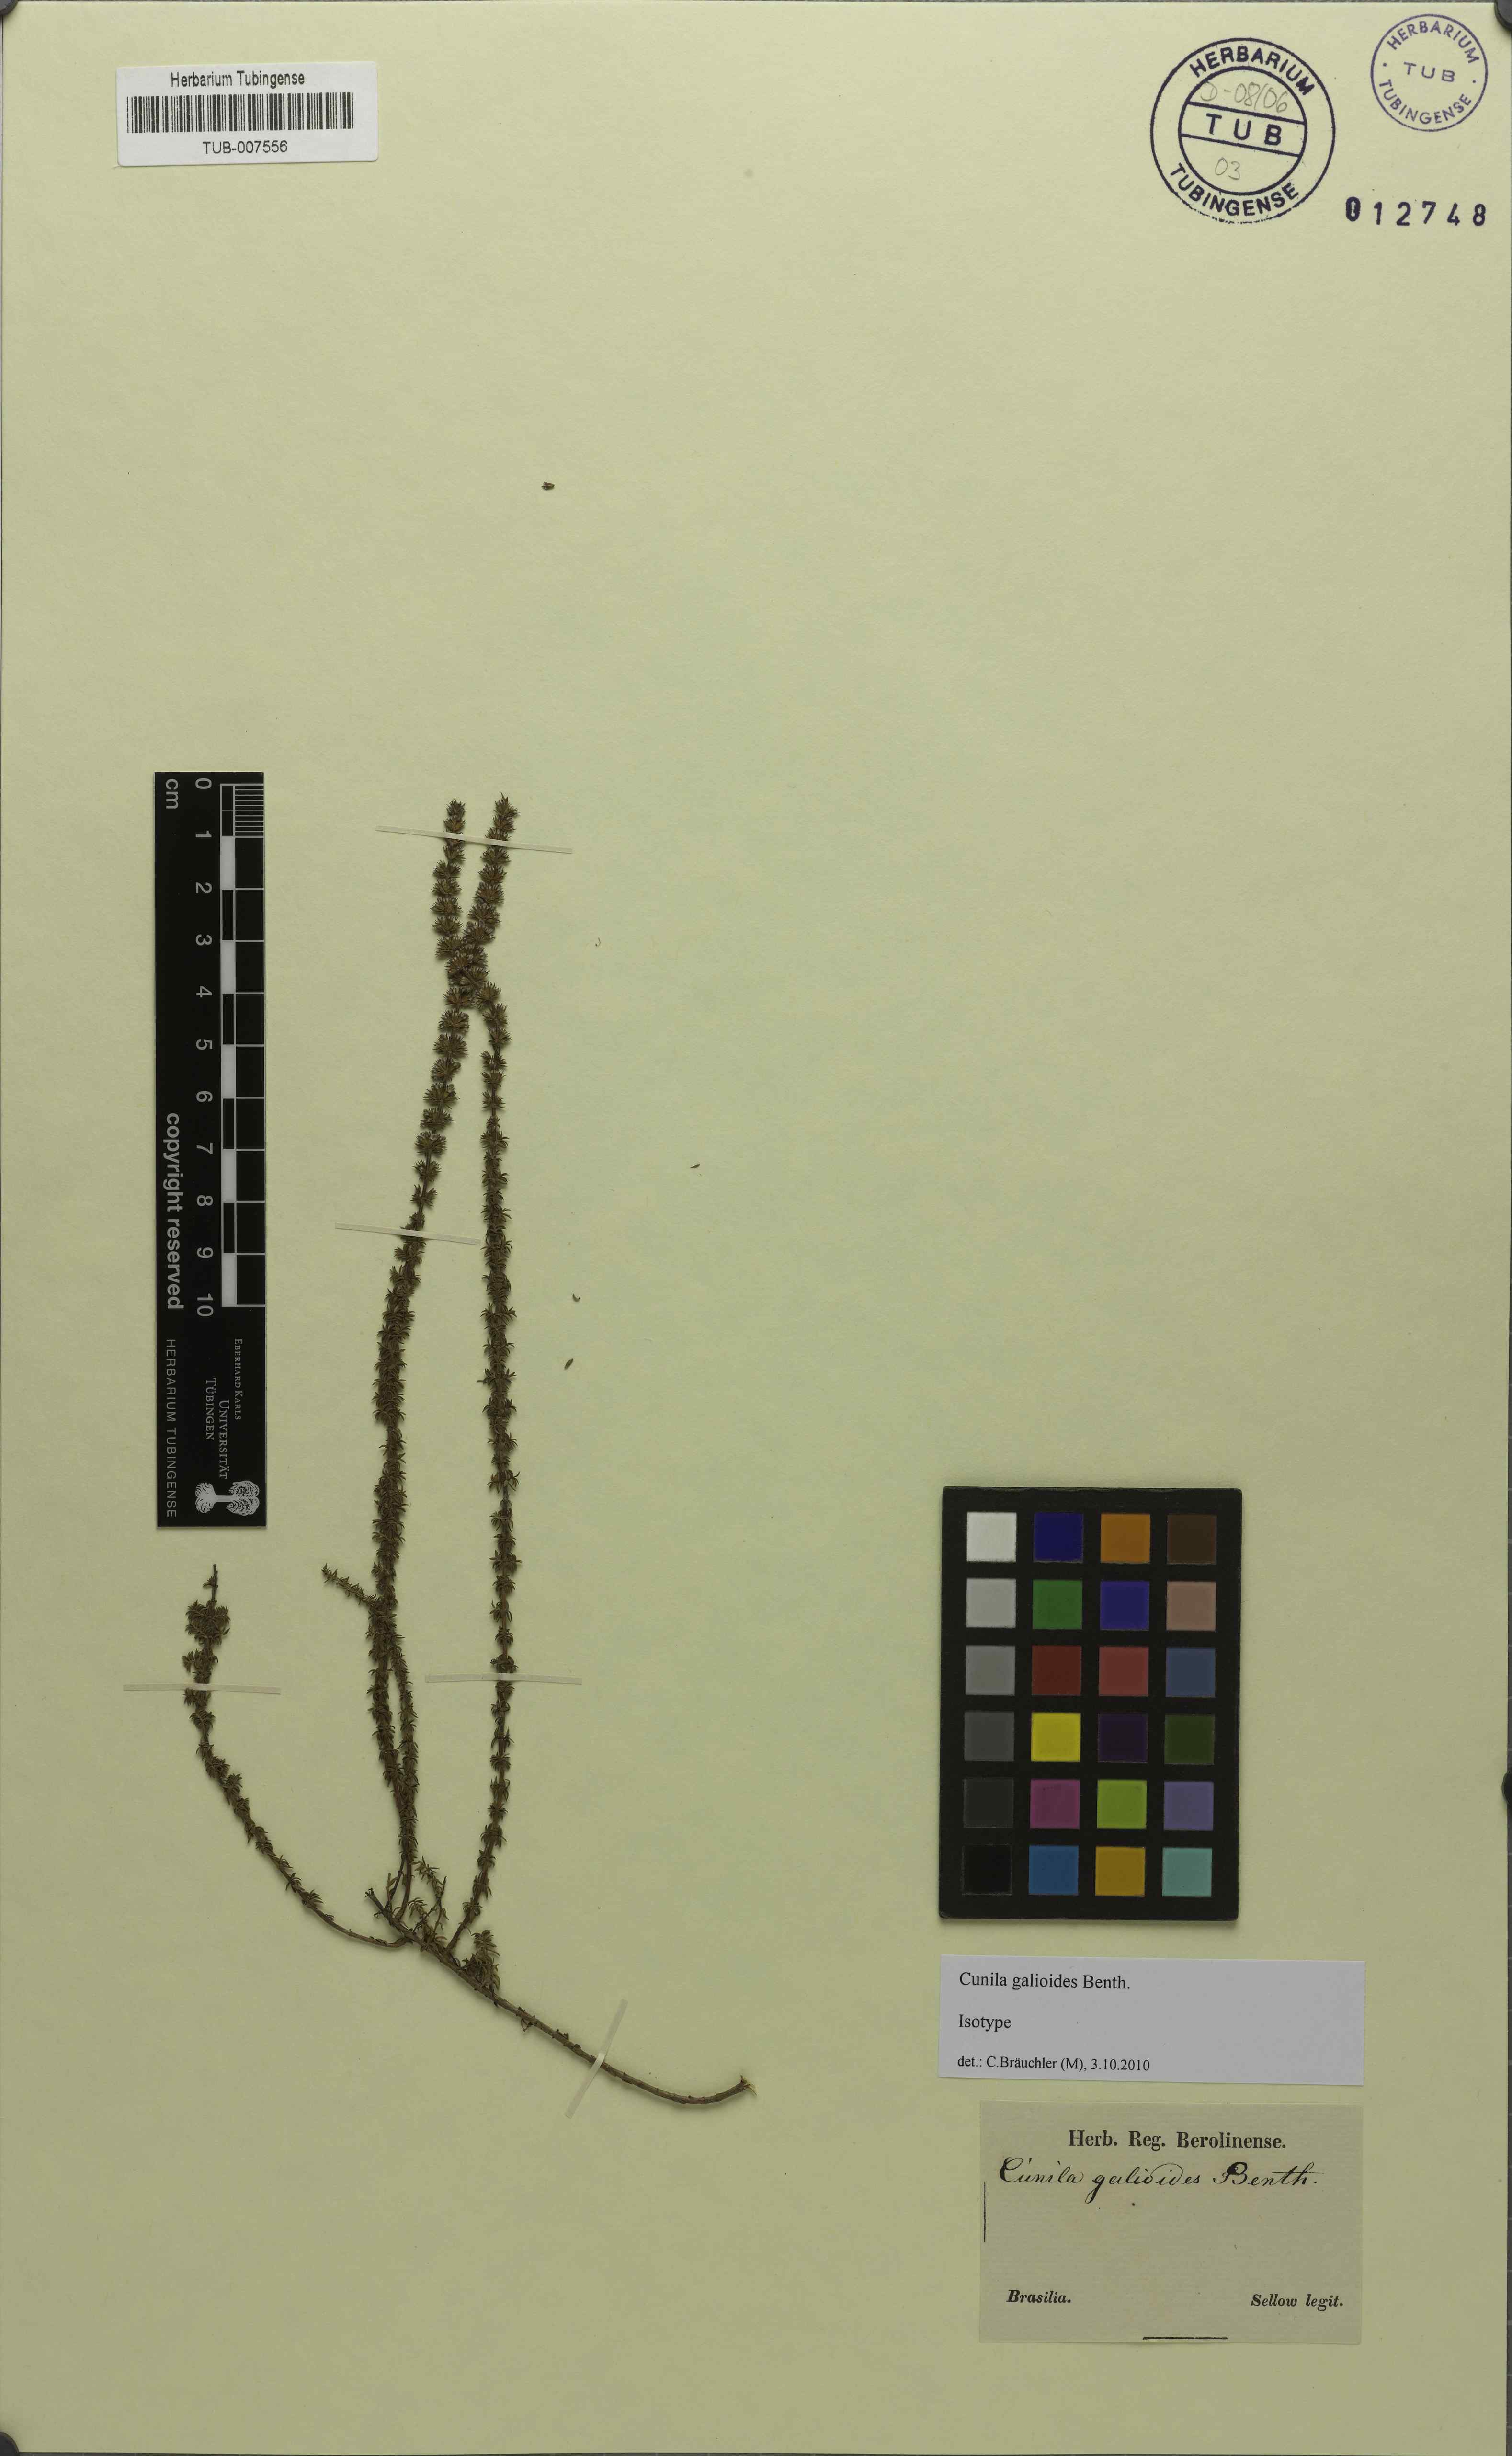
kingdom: Plantae
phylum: Tracheophyta
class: Magnoliopsida
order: Lamiales
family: Lamiaceae
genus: Cunila
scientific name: Cunila galioides
